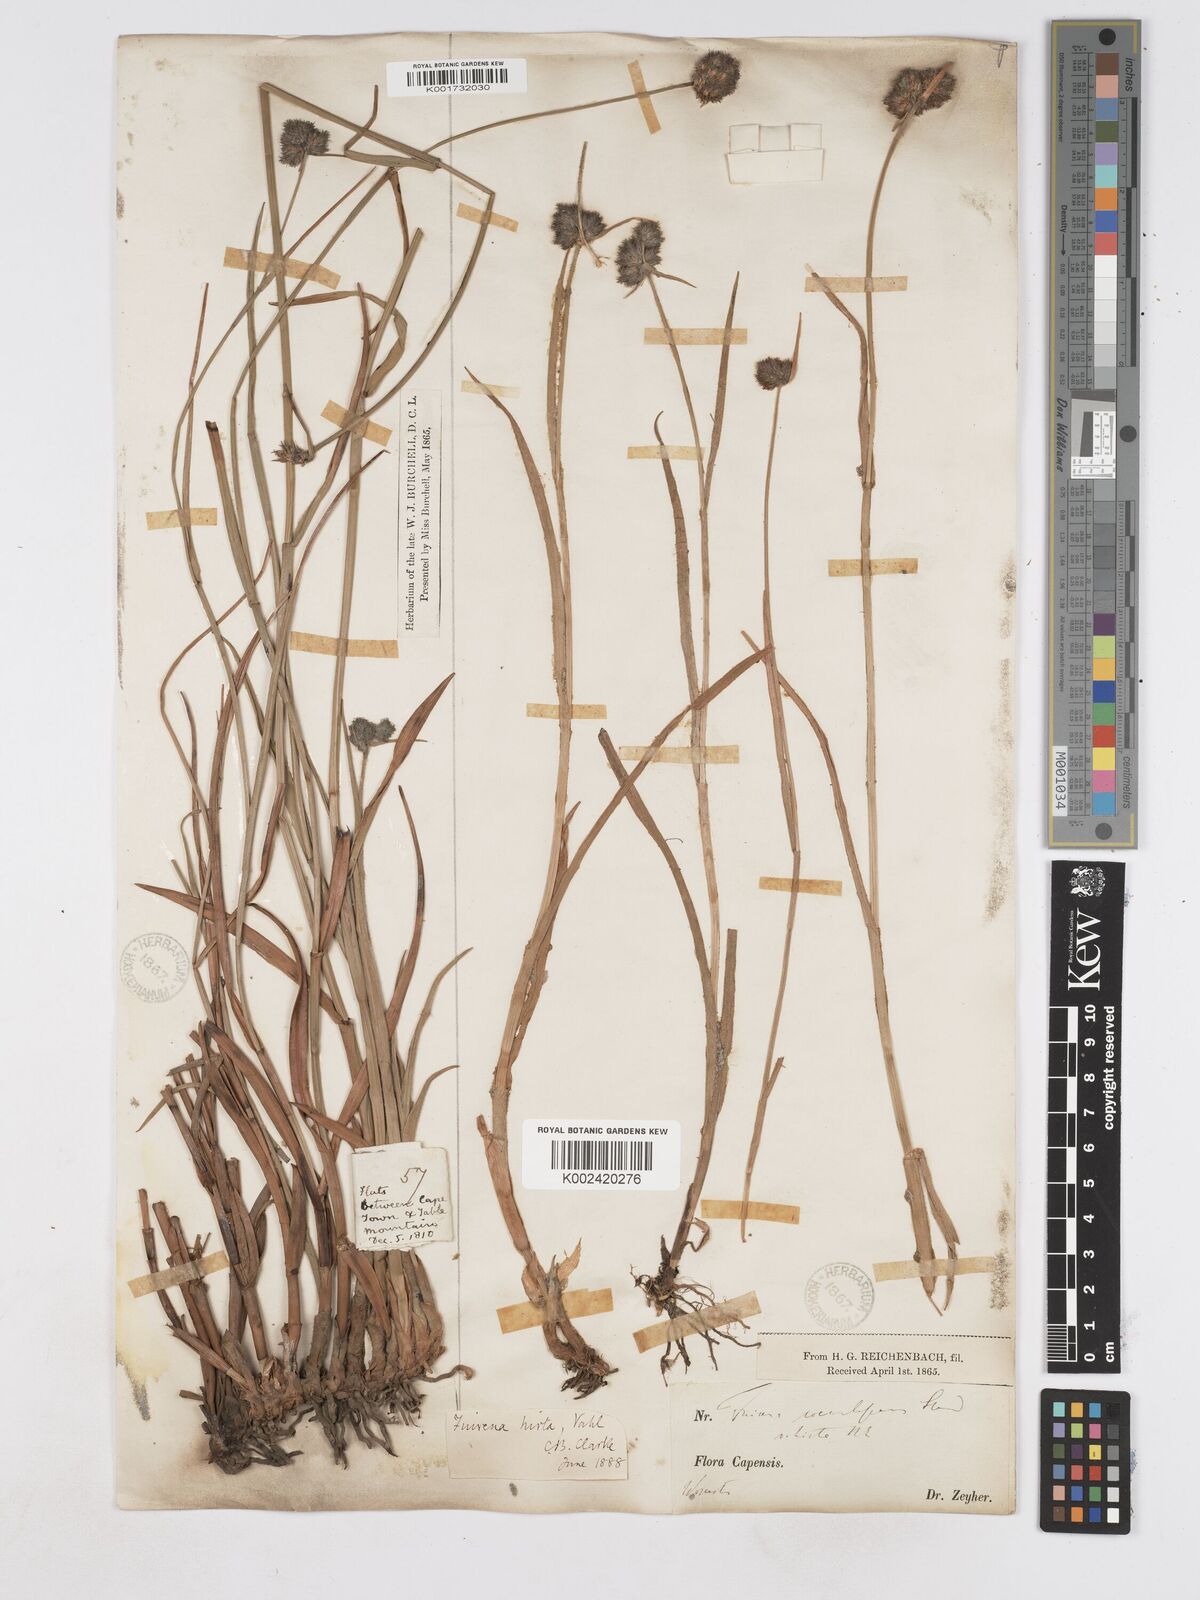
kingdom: Plantae
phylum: Tracheophyta
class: Liliopsida
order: Poales
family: Cyperaceae
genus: Fuirena
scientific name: Fuirena hirsuta
